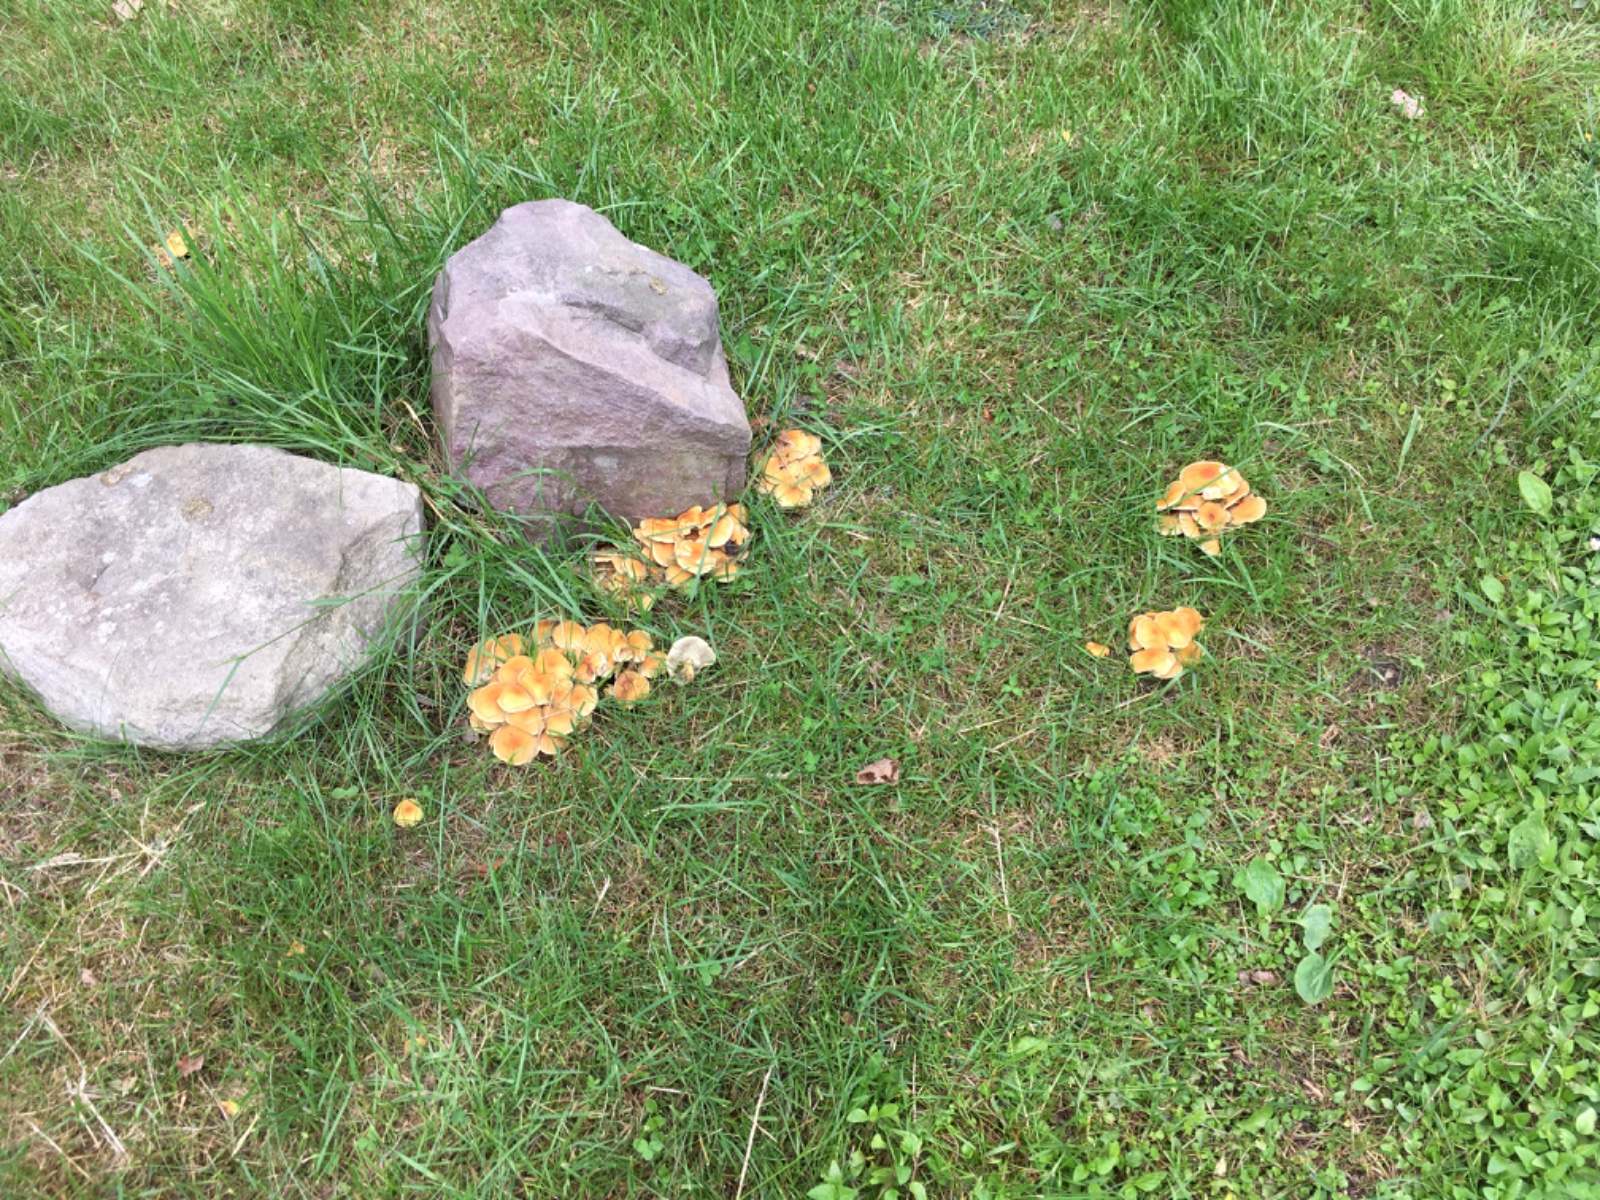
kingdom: Fungi
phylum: Basidiomycota
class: Agaricomycetes
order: Agaricales
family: Strophariaceae
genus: Hypholoma
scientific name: Hypholoma fasciculare
